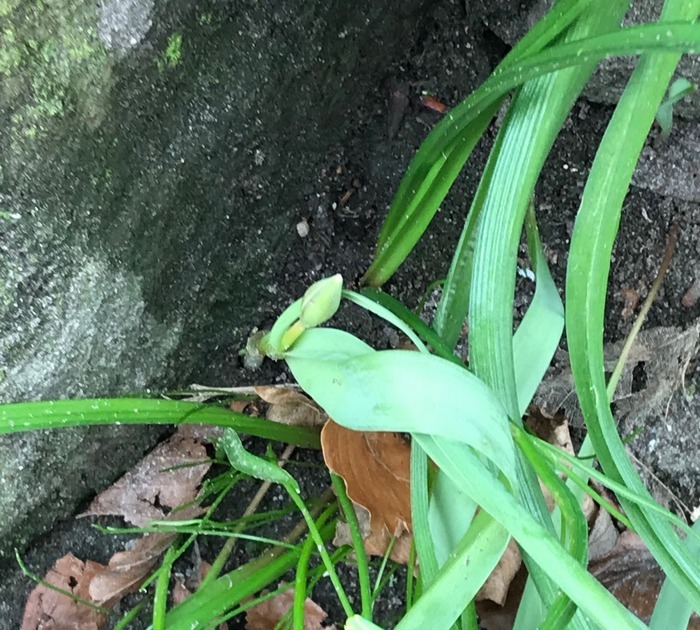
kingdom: Plantae
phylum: Tracheophyta
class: Liliopsida
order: Liliales
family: Liliaceae
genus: Tulipa
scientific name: Tulipa sylvestris
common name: Vild tulipan
